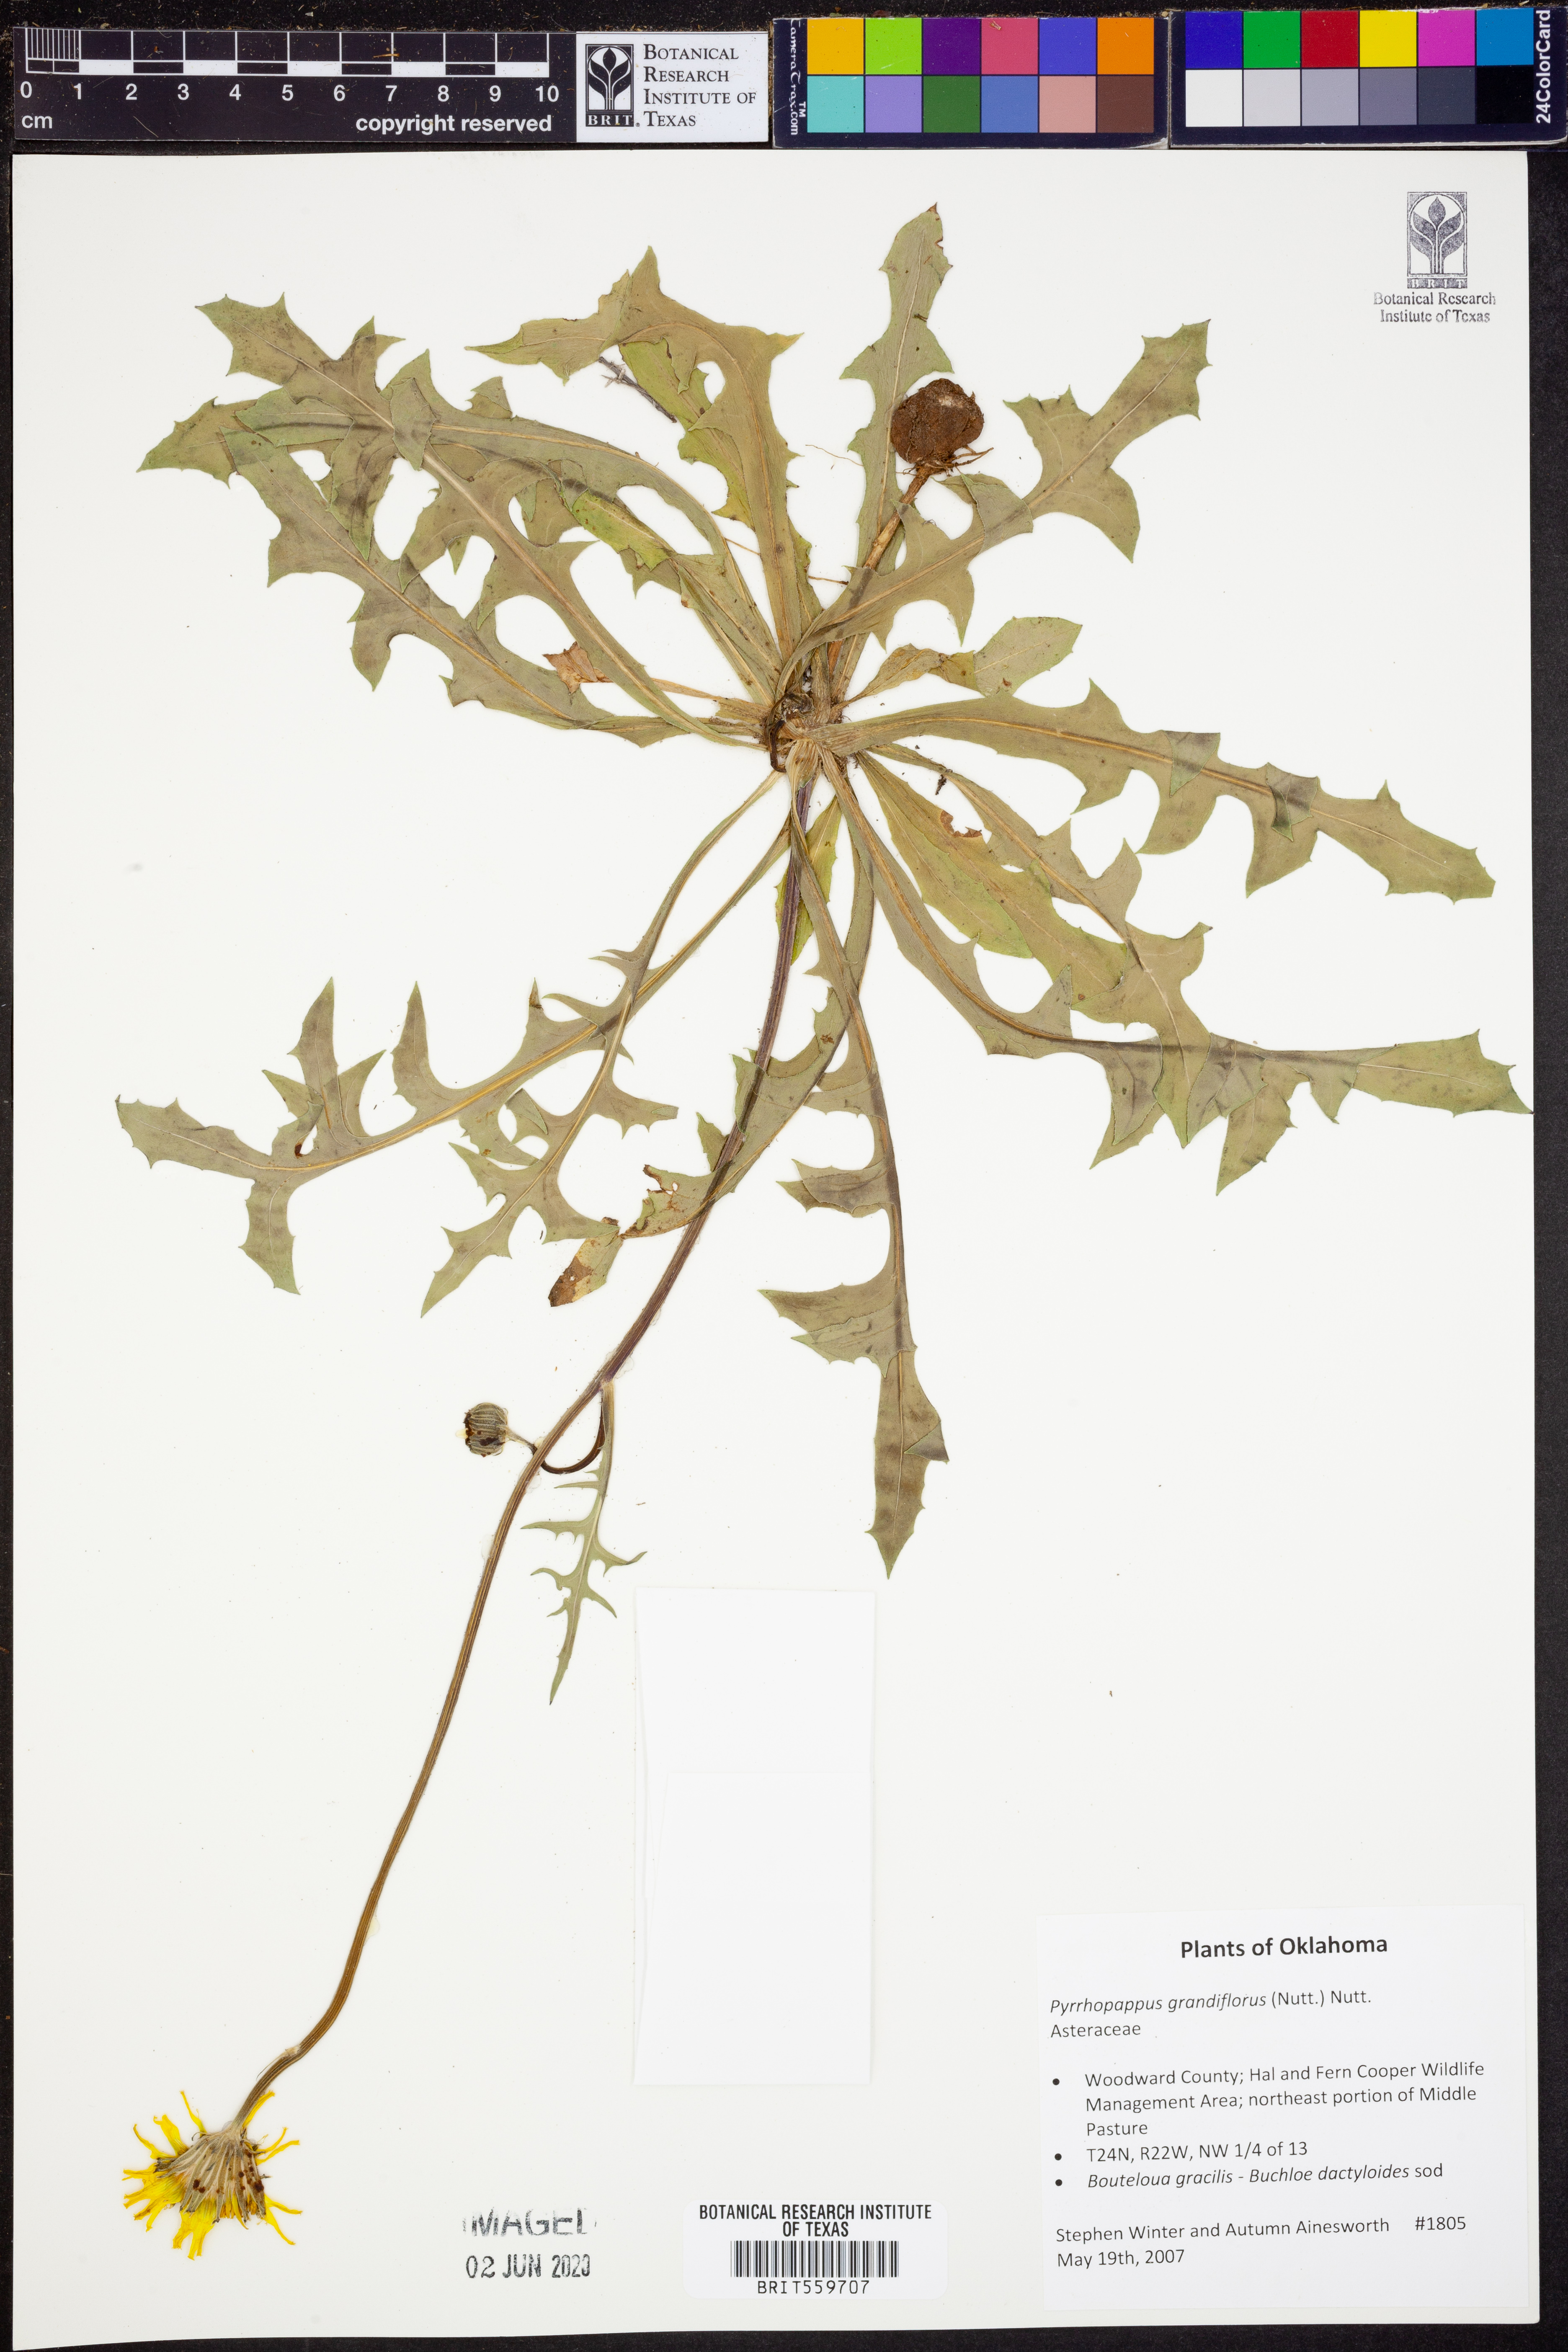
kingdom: Plantae
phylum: Tracheophyta
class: Magnoliopsida
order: Asterales
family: Asteraceae
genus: Pyrrhopappus
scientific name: Pyrrhopappus grandiflorus
